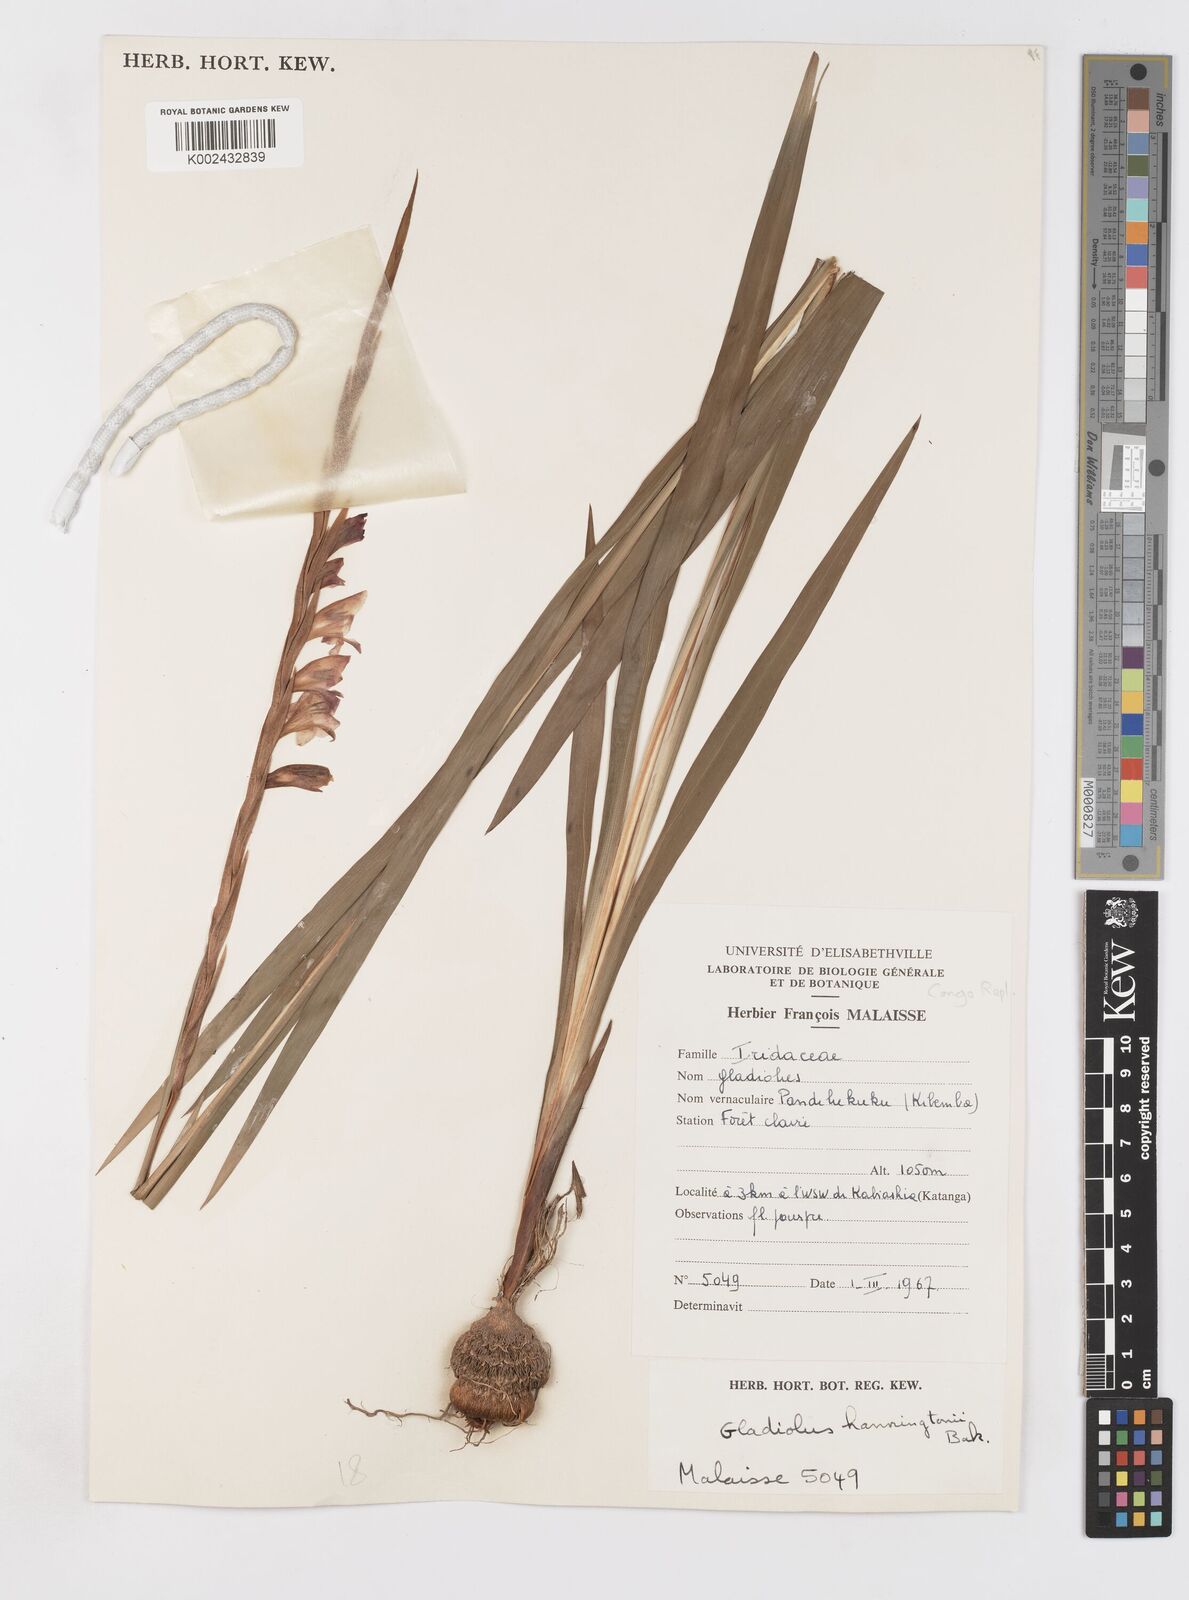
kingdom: Plantae
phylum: Tracheophyta
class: Liliopsida
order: Asparagales
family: Iridaceae
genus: Gladiolus
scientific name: Gladiolus gregarius
